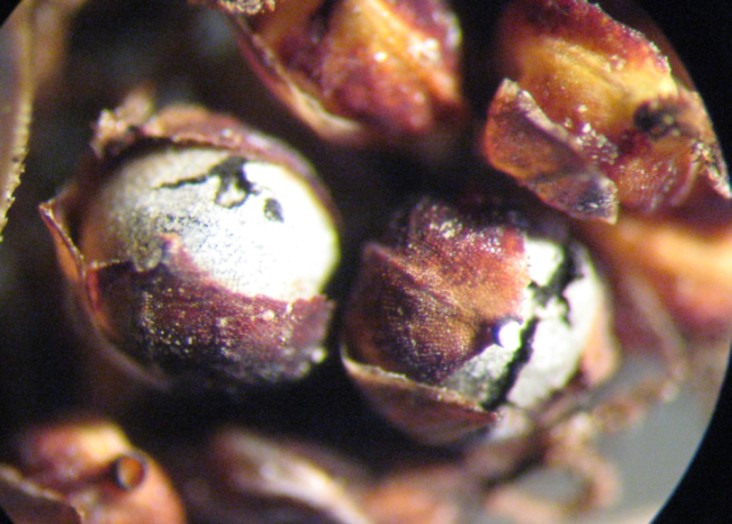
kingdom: Fungi
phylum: Basidiomycota
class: Ustilaginomycetes
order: Ustilaginales
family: Anthracoideaceae
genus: Anthracoidea
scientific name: Anthracoidea pratensis
